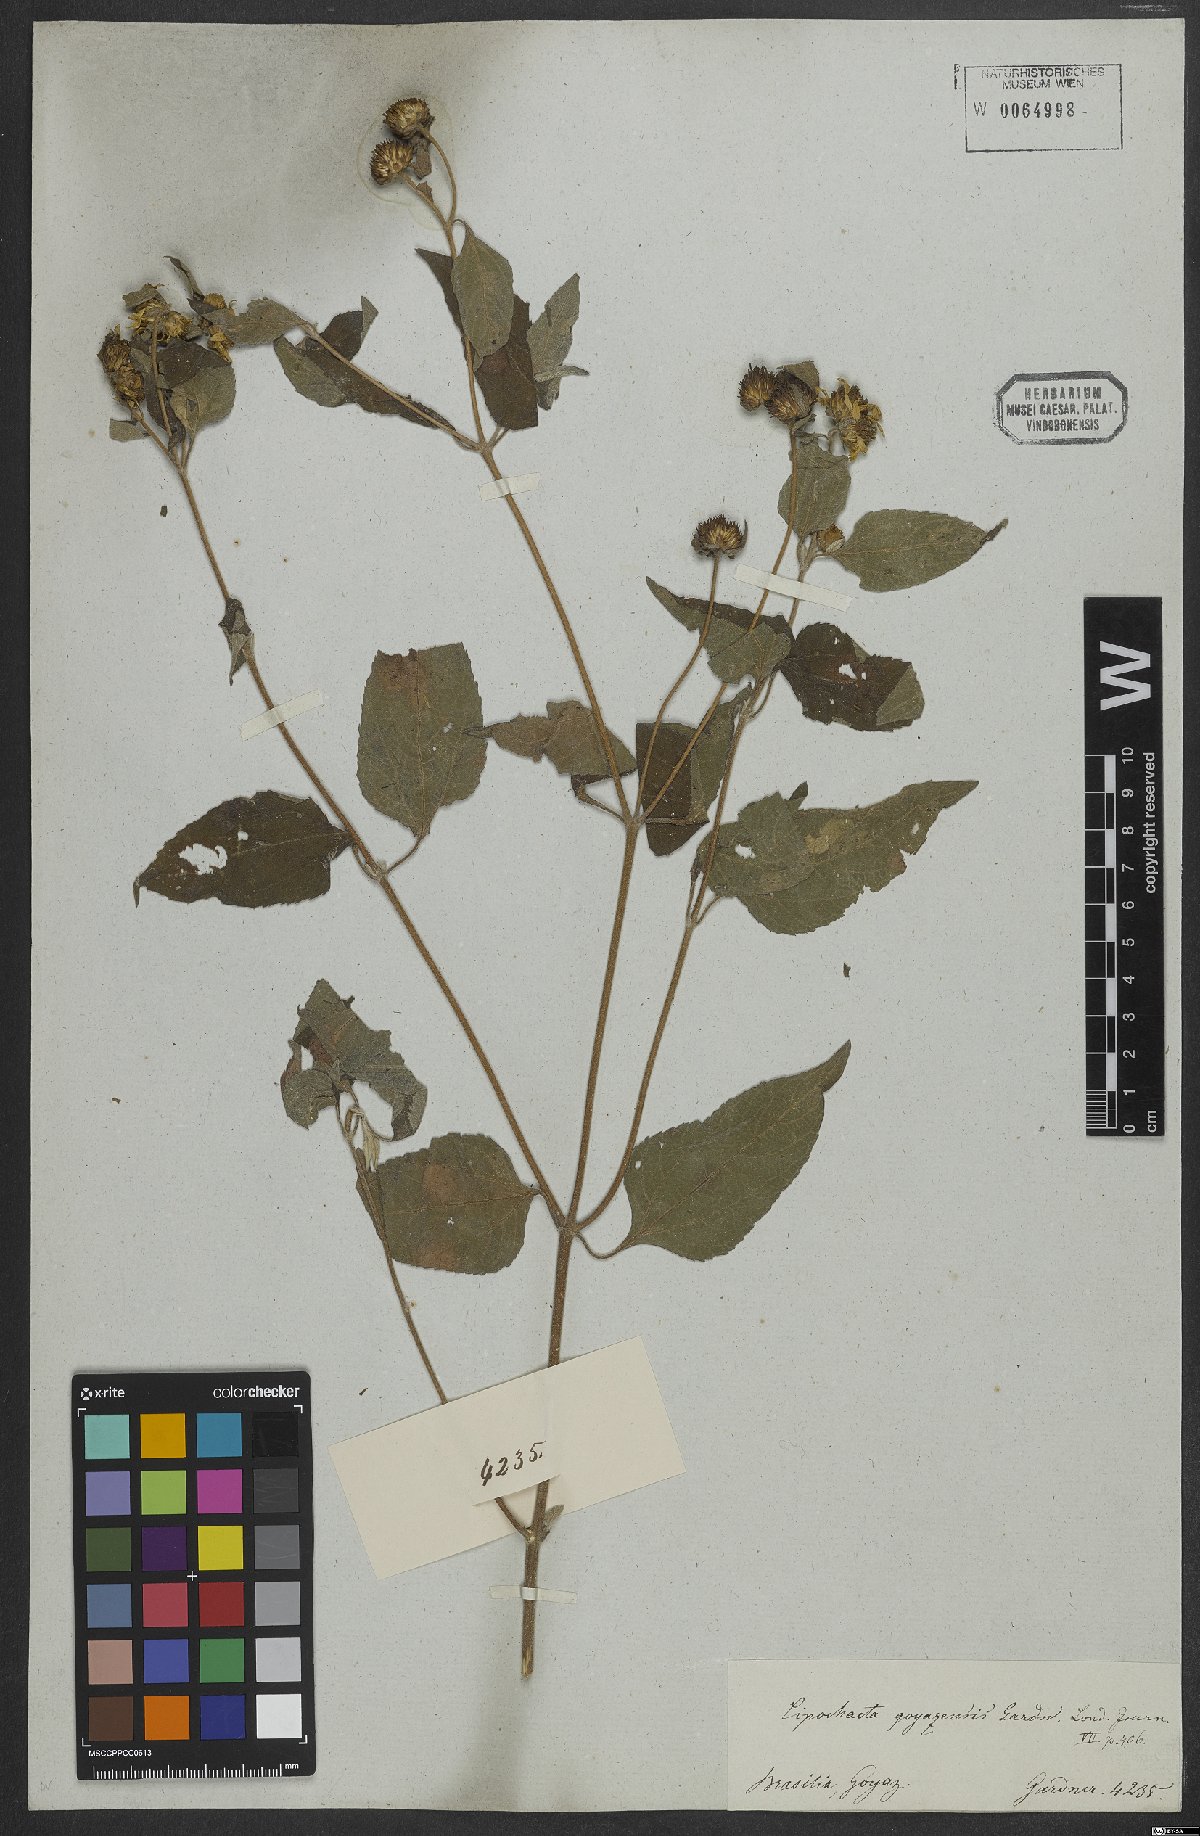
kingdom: Plantae
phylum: Tracheophyta
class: Magnoliopsida
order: Asterales
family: Asteraceae
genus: Dimerostemma
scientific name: Dimerostemma goyazense
